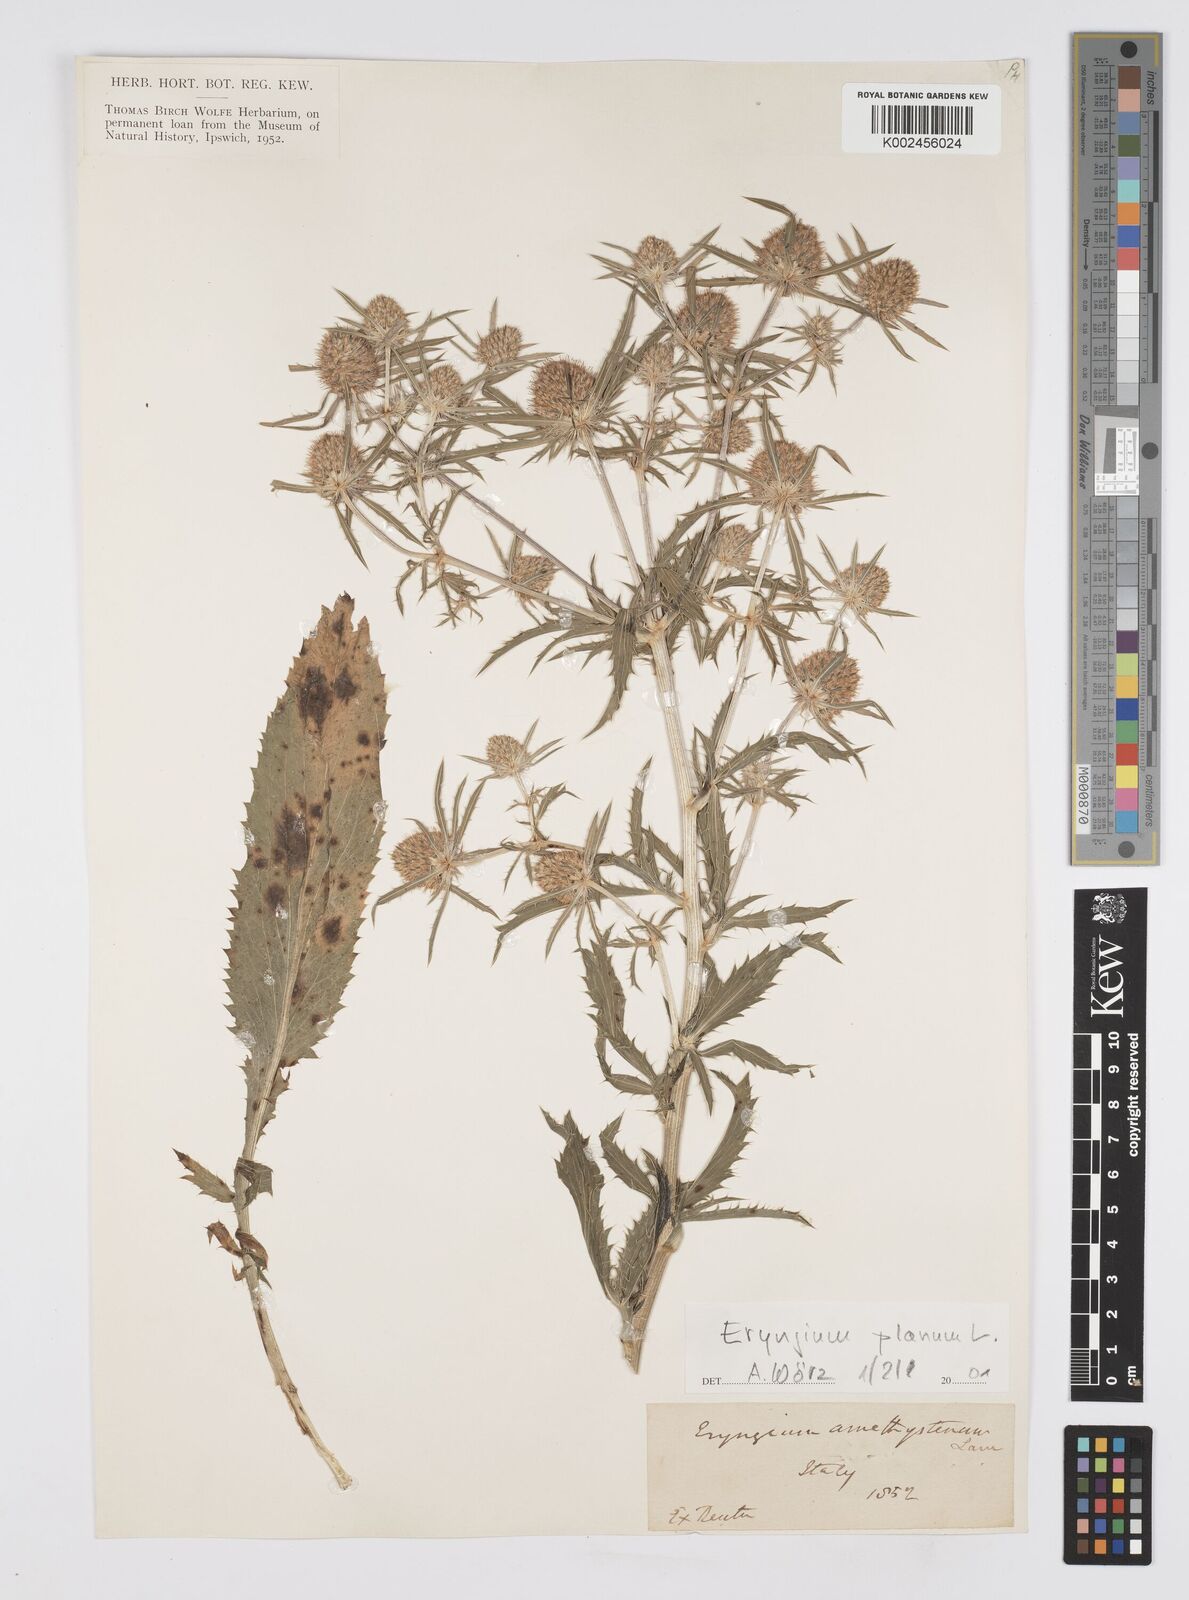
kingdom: Plantae
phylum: Tracheophyta
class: Magnoliopsida
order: Apiales
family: Apiaceae
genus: Eryngium
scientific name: Eryngium planum
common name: Blue eryngo
